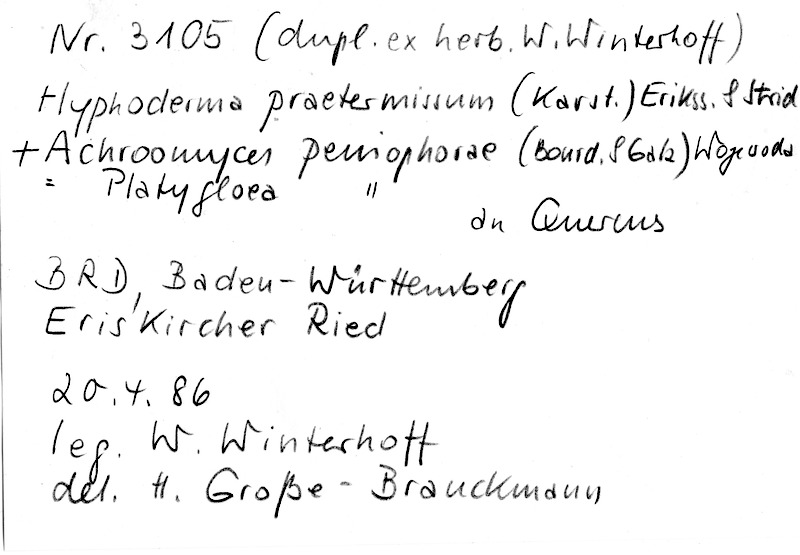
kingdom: Fungi
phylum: Basidiomycota
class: Agaricomycetes
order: Hymenochaetales
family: Rickenellaceae
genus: Peniophorella
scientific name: Peniophorella praetermissa
